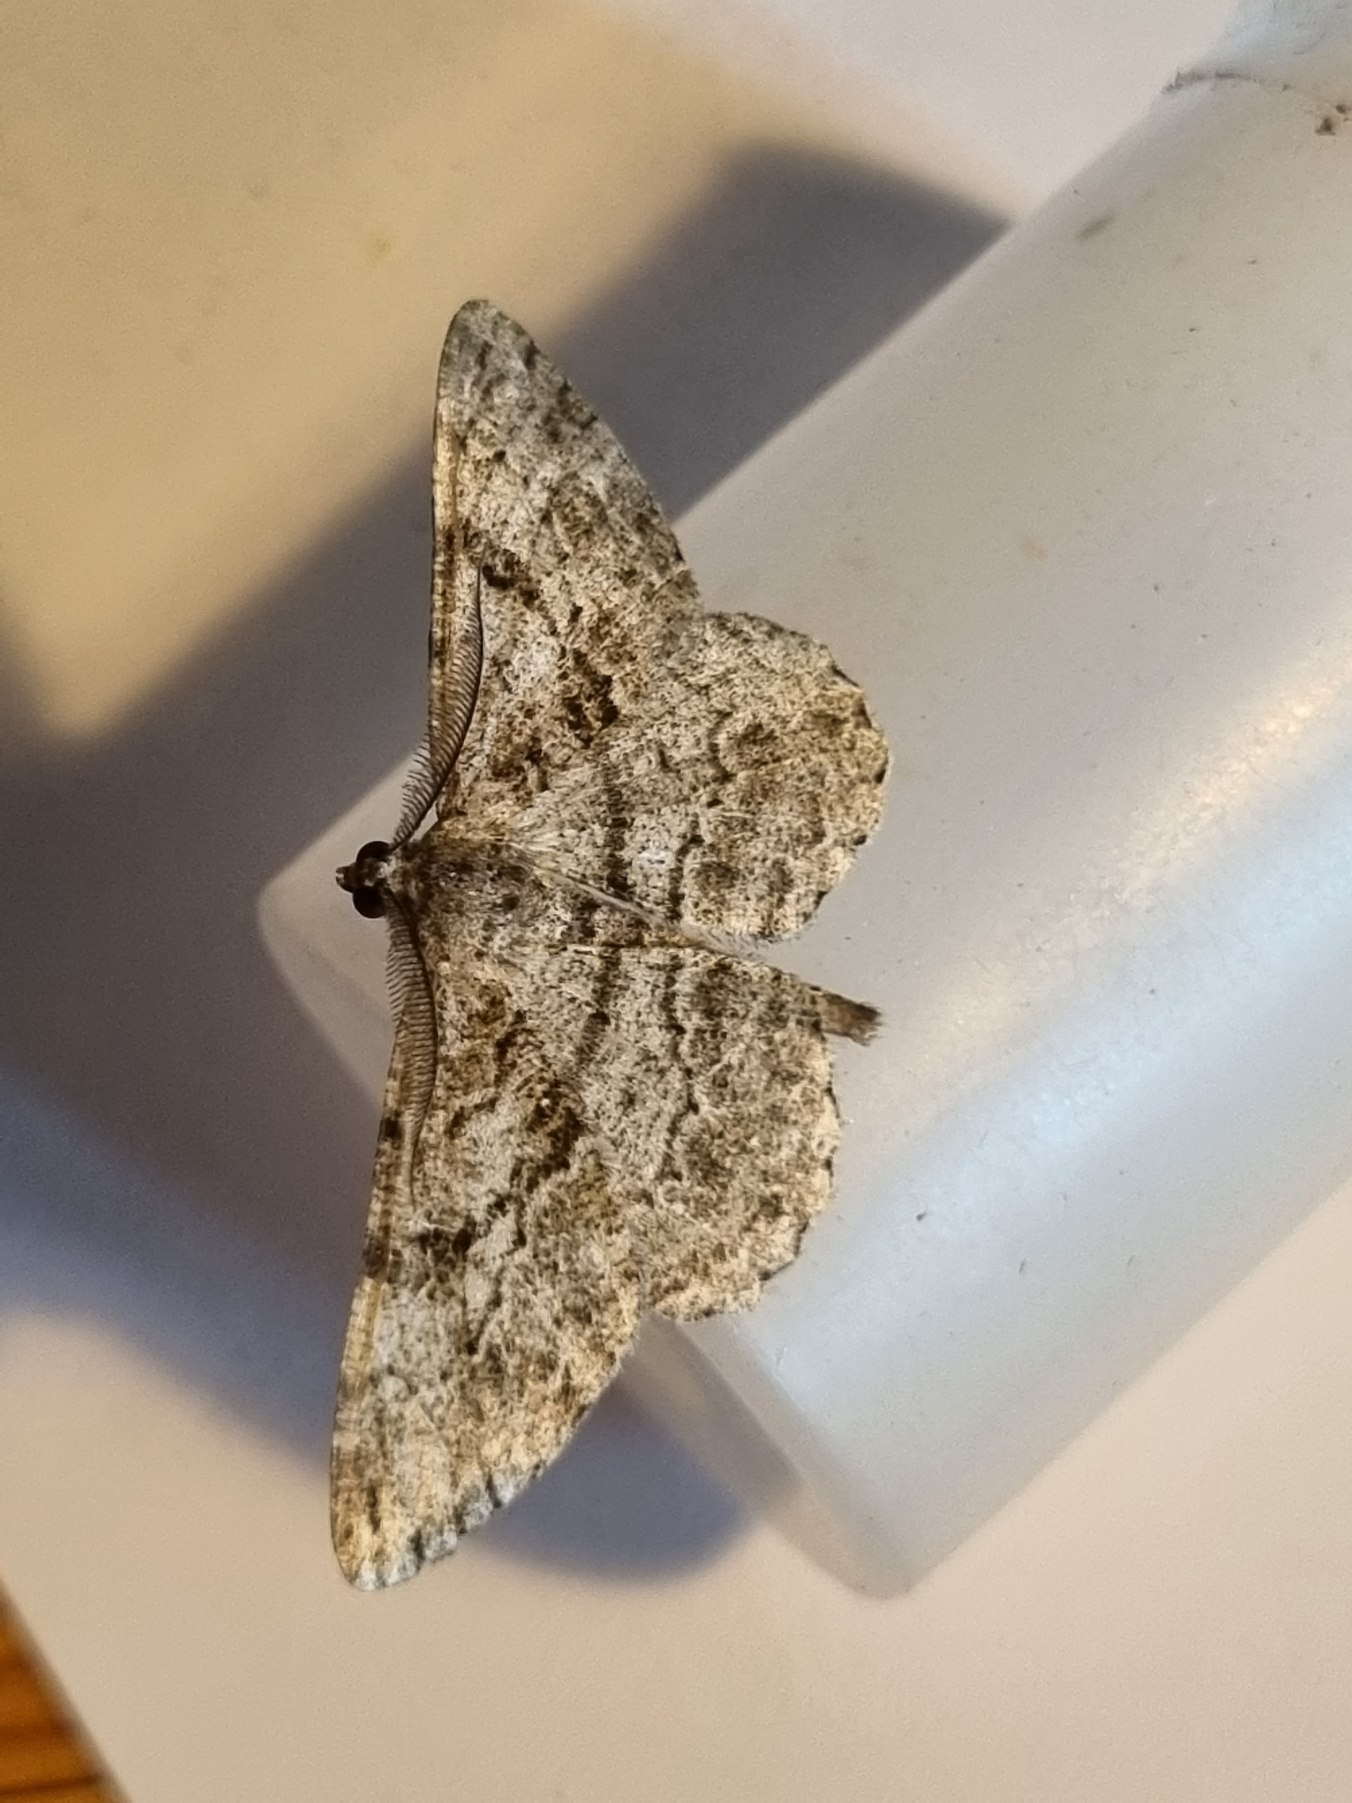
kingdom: Animalia
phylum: Arthropoda
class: Insecta
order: Lepidoptera
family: Geometridae
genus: Peribatodes
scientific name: Peribatodes rhomboidaria
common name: Frugttræ-barkmåler
